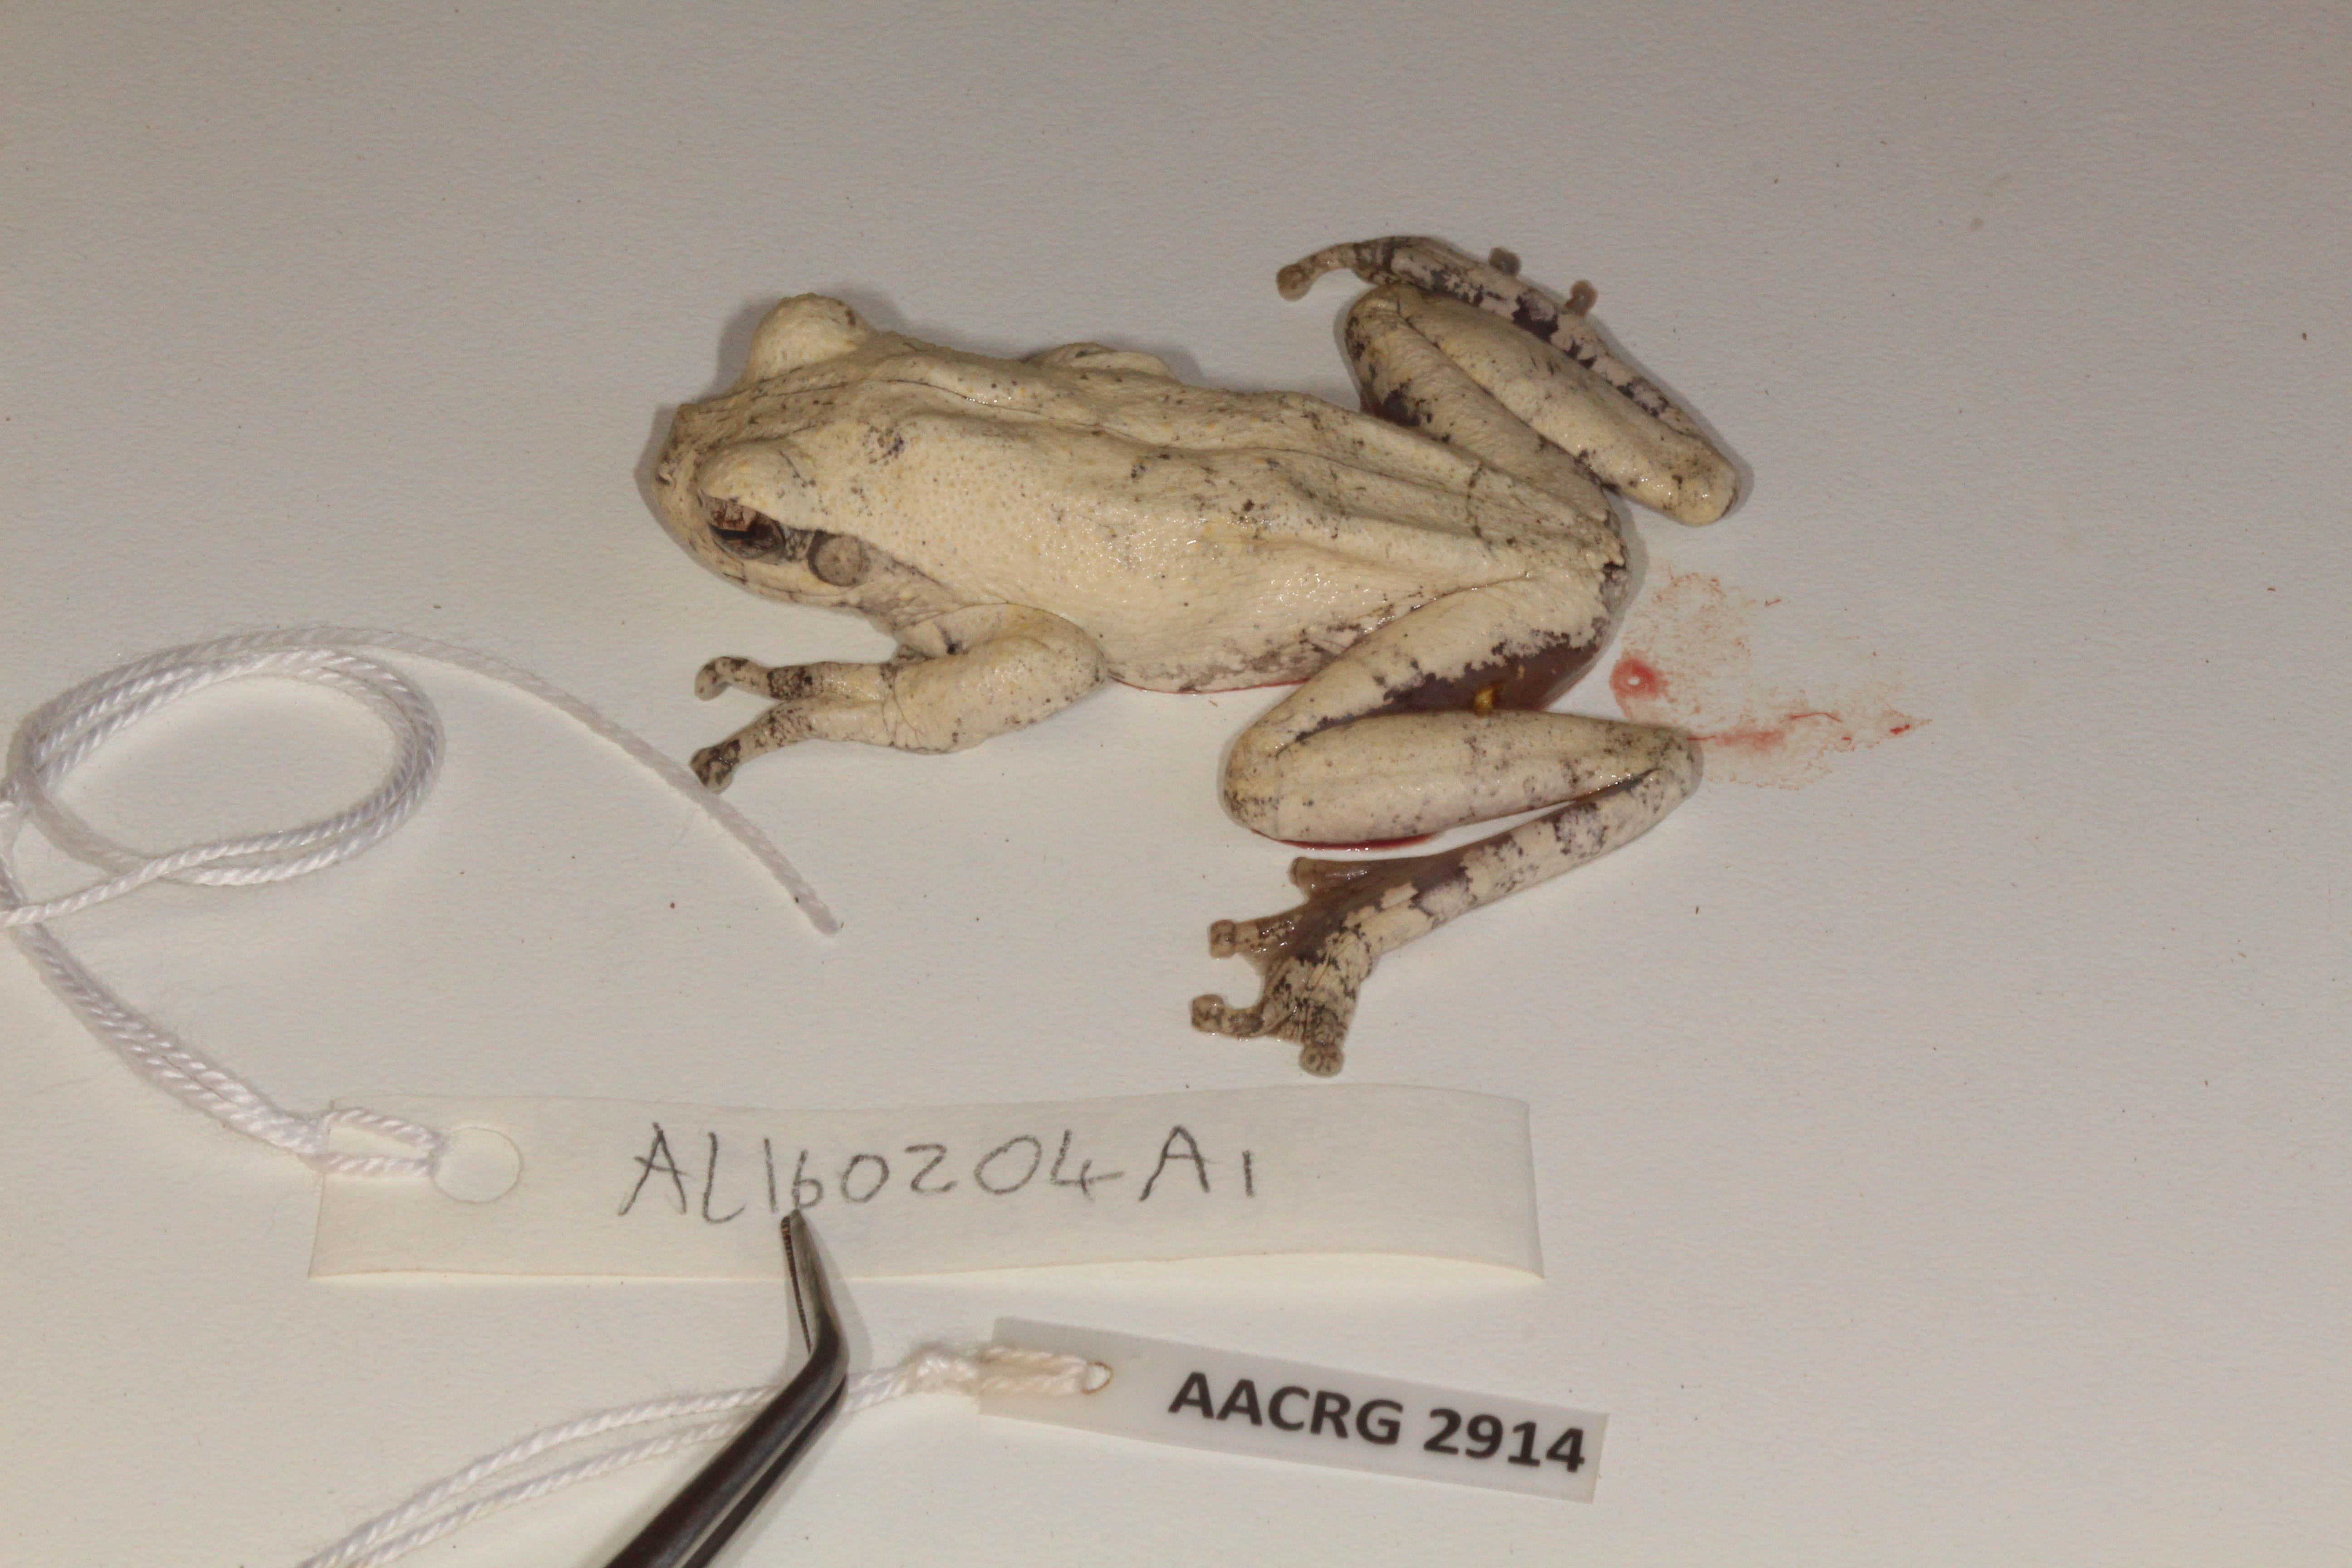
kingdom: Animalia
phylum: Chordata
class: Amphibia
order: Anura
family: Rhacophoridae
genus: Chiromantis
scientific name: Chiromantis xerampelina
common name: African gray treefrog
